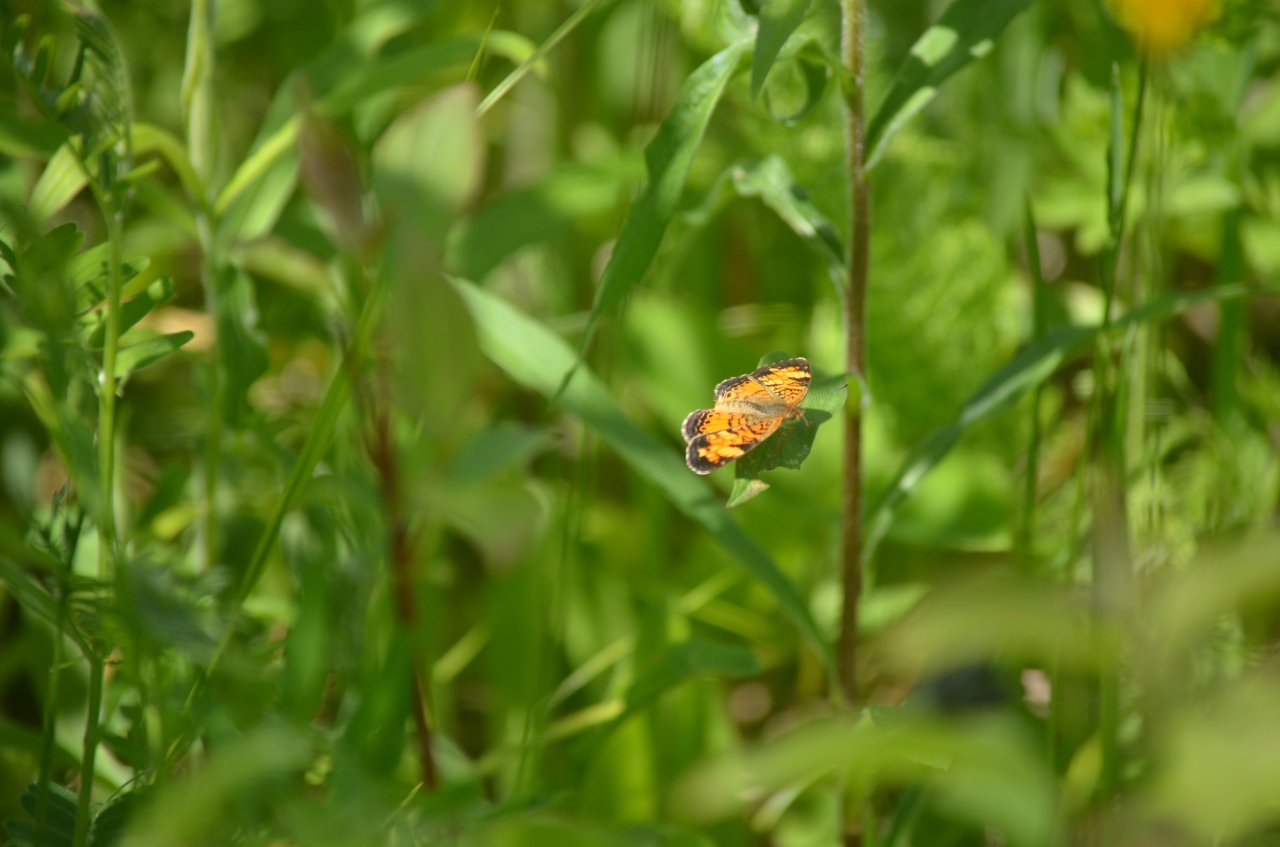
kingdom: Animalia
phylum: Arthropoda
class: Insecta
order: Lepidoptera
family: Nymphalidae
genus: Phyciodes
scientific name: Phyciodes
